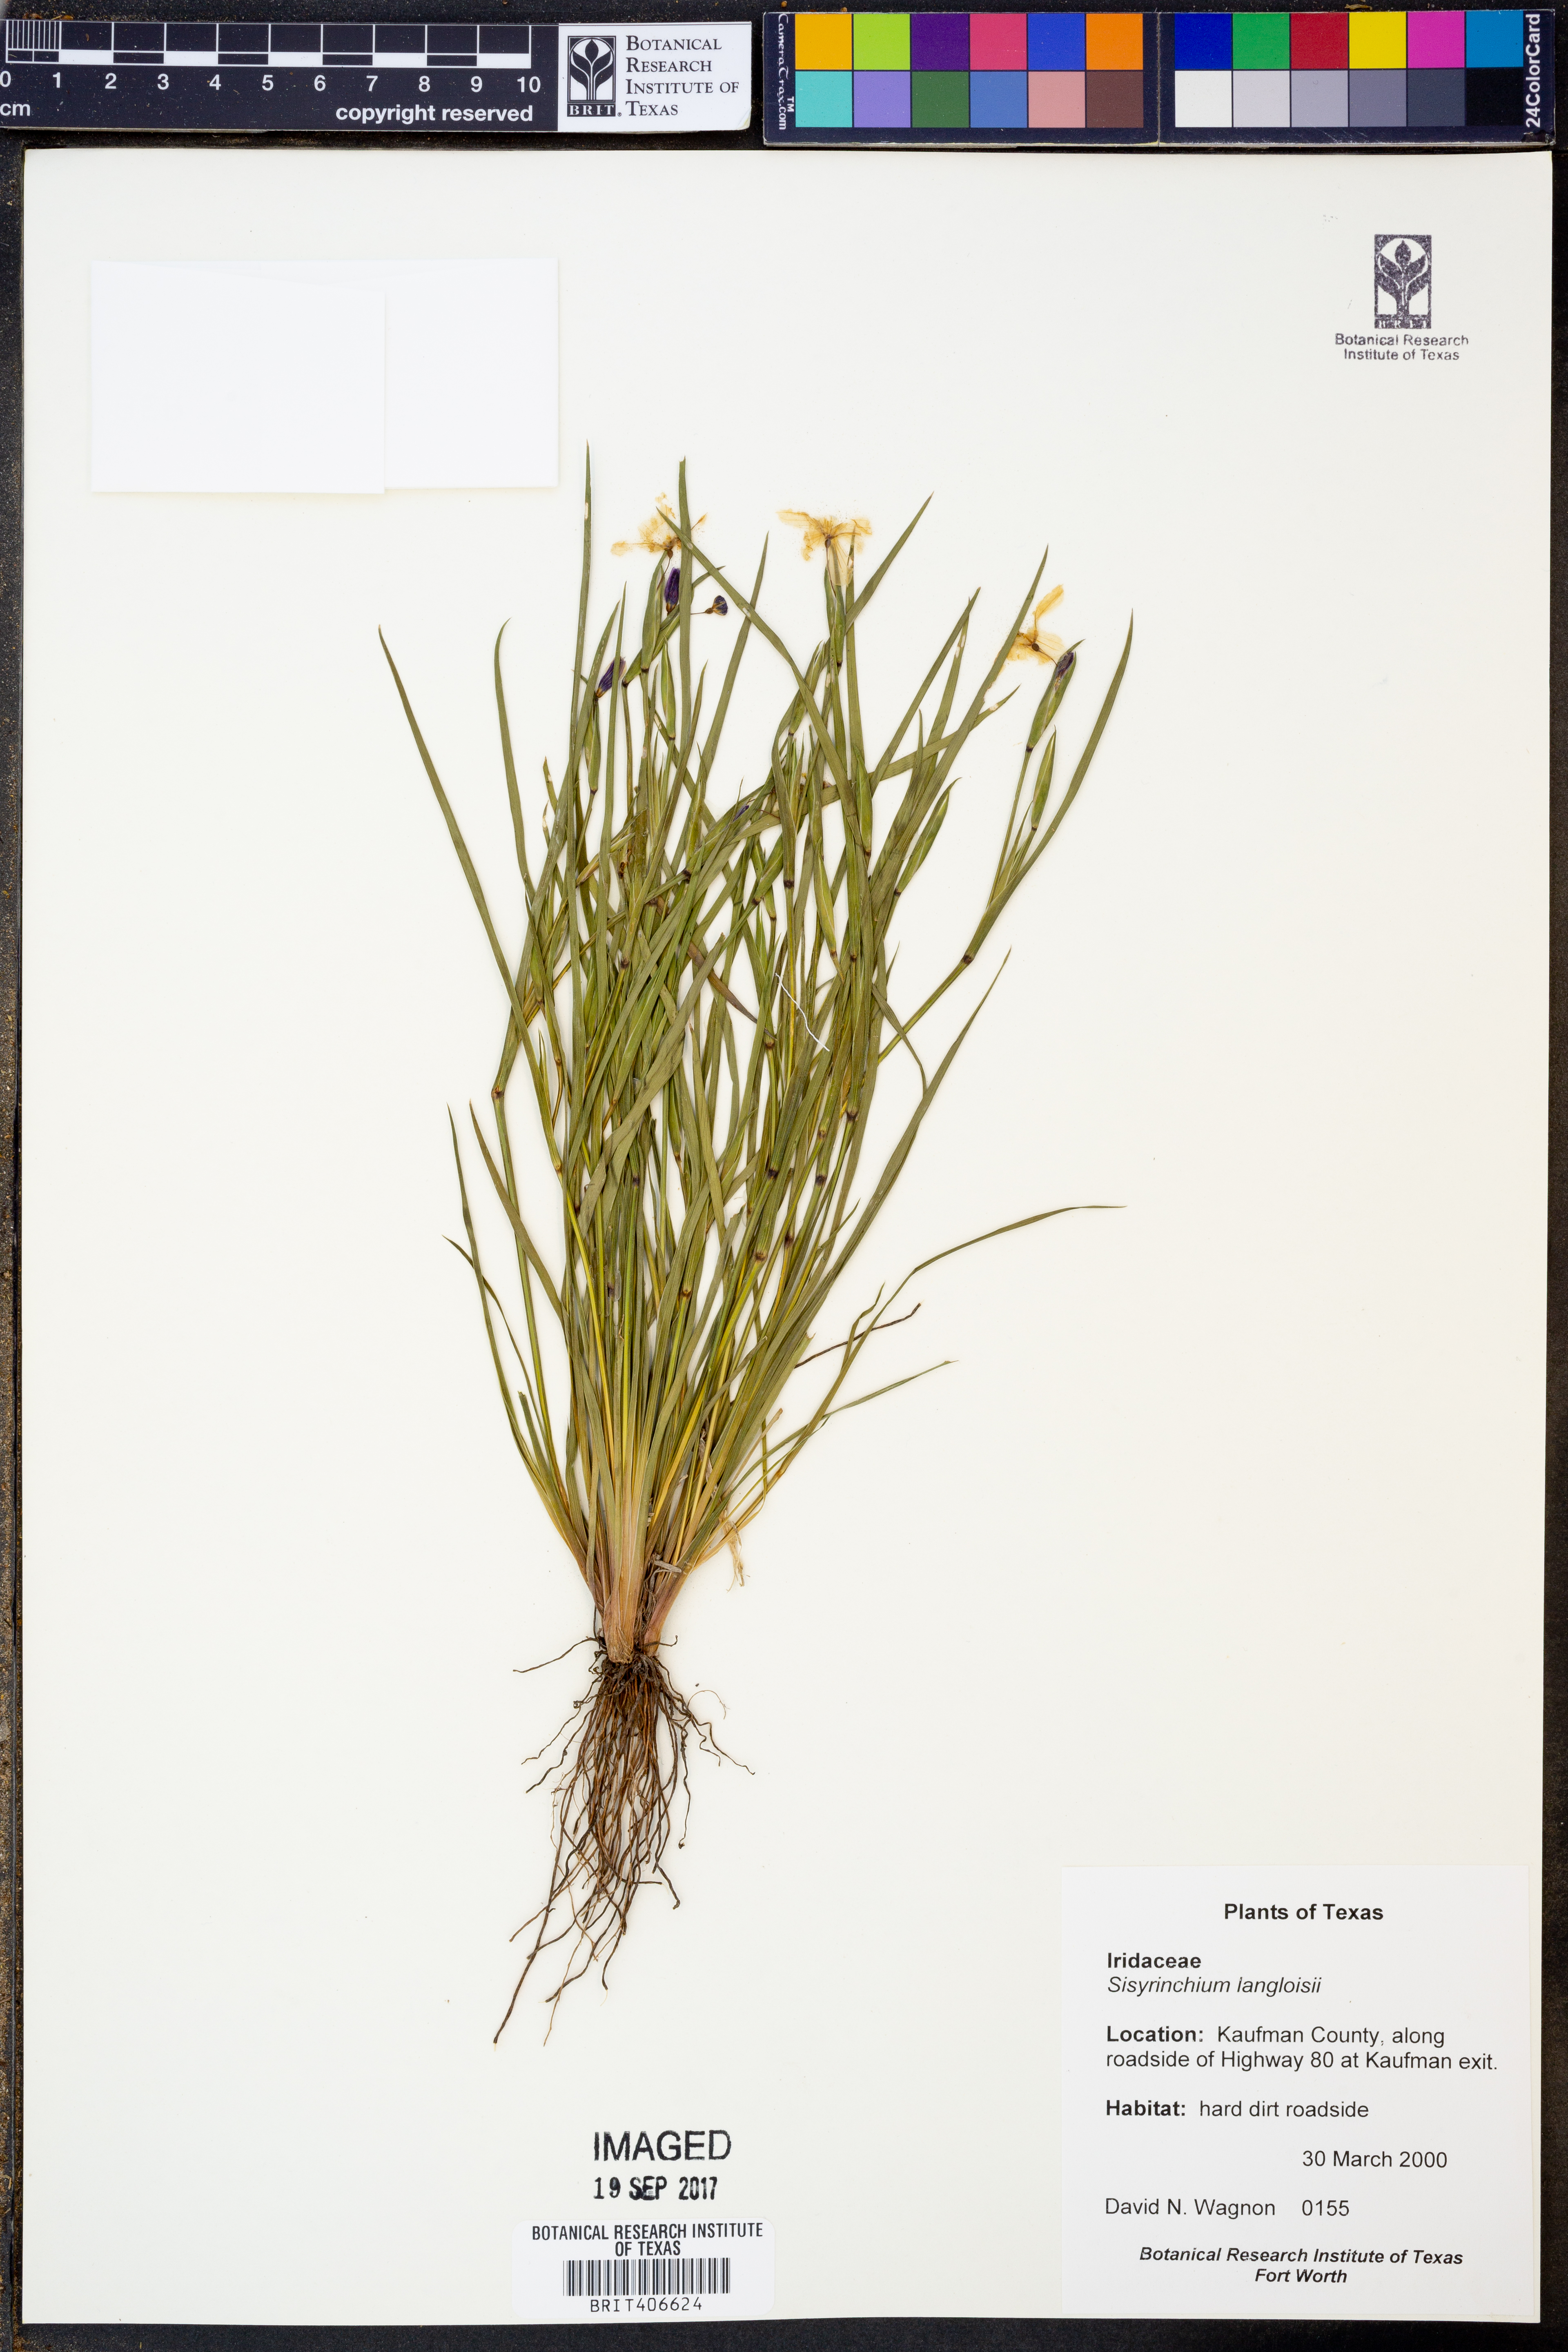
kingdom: Plantae
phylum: Tracheophyta
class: Liliopsida
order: Asparagales
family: Iridaceae
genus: Sisyrinchium
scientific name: Sisyrinchium langloisii
